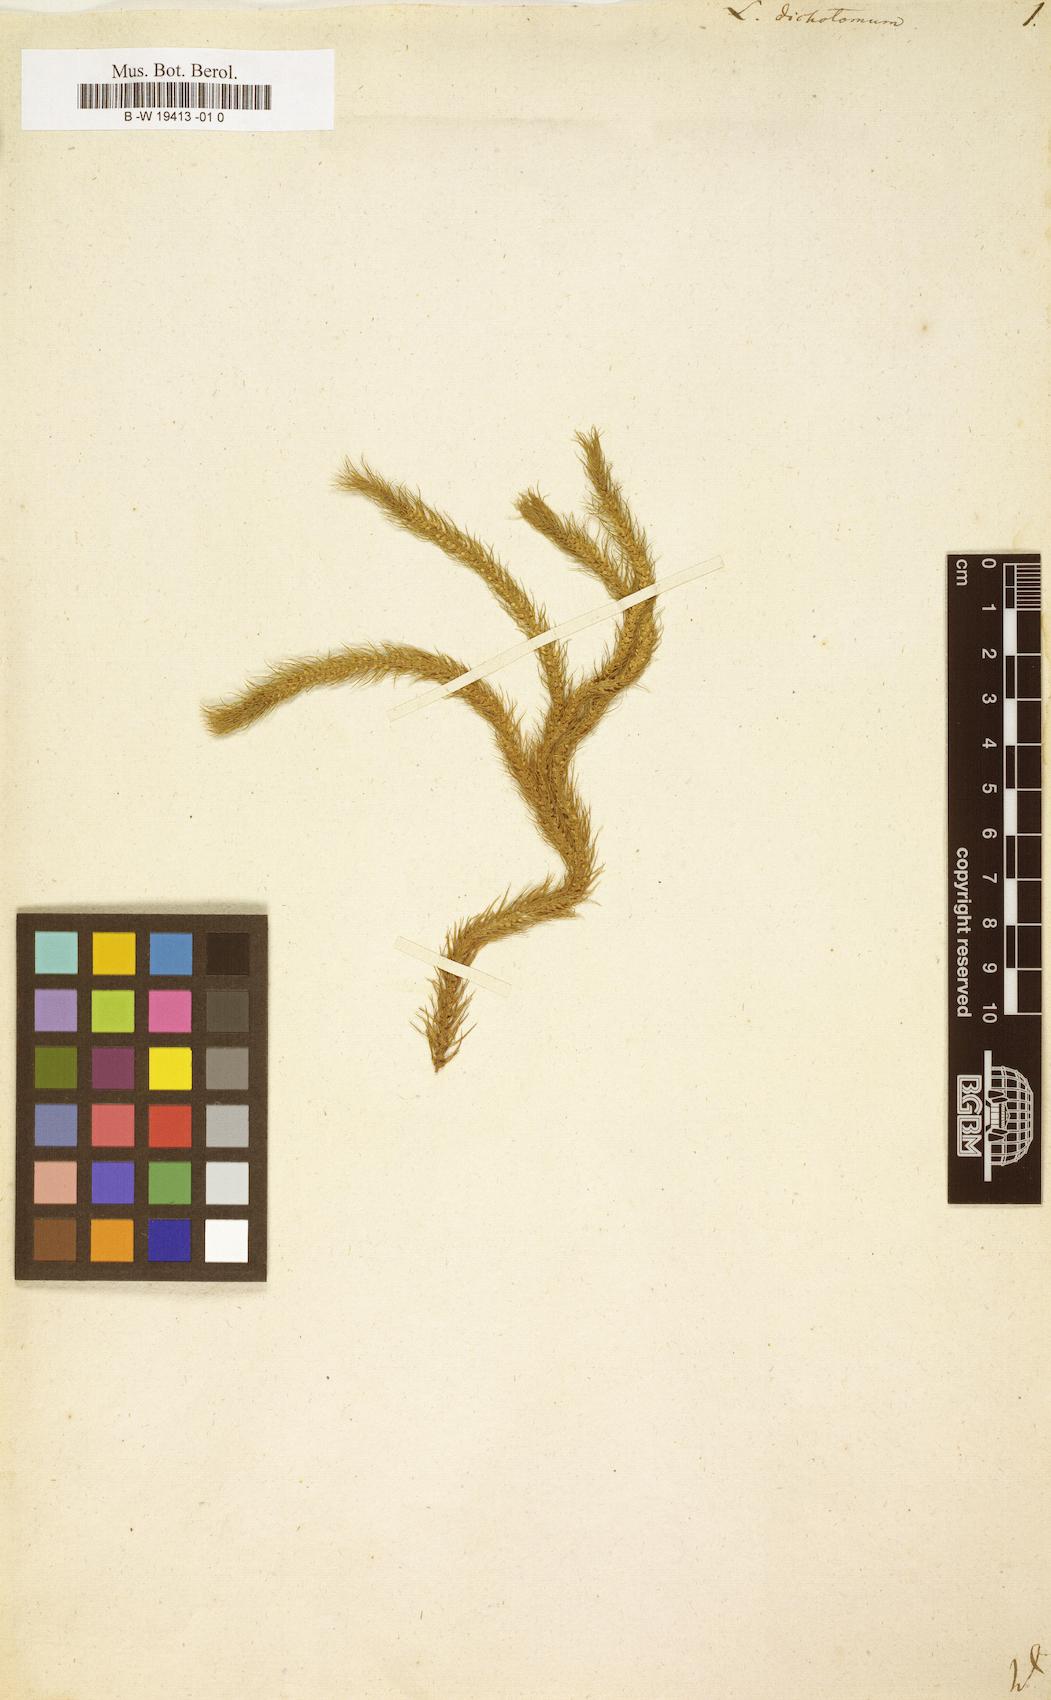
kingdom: Plantae
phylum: Tracheophyta
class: Lycopodiopsida
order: Lycopodiales
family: Lycopodiaceae
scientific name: Lycopodiaceae
